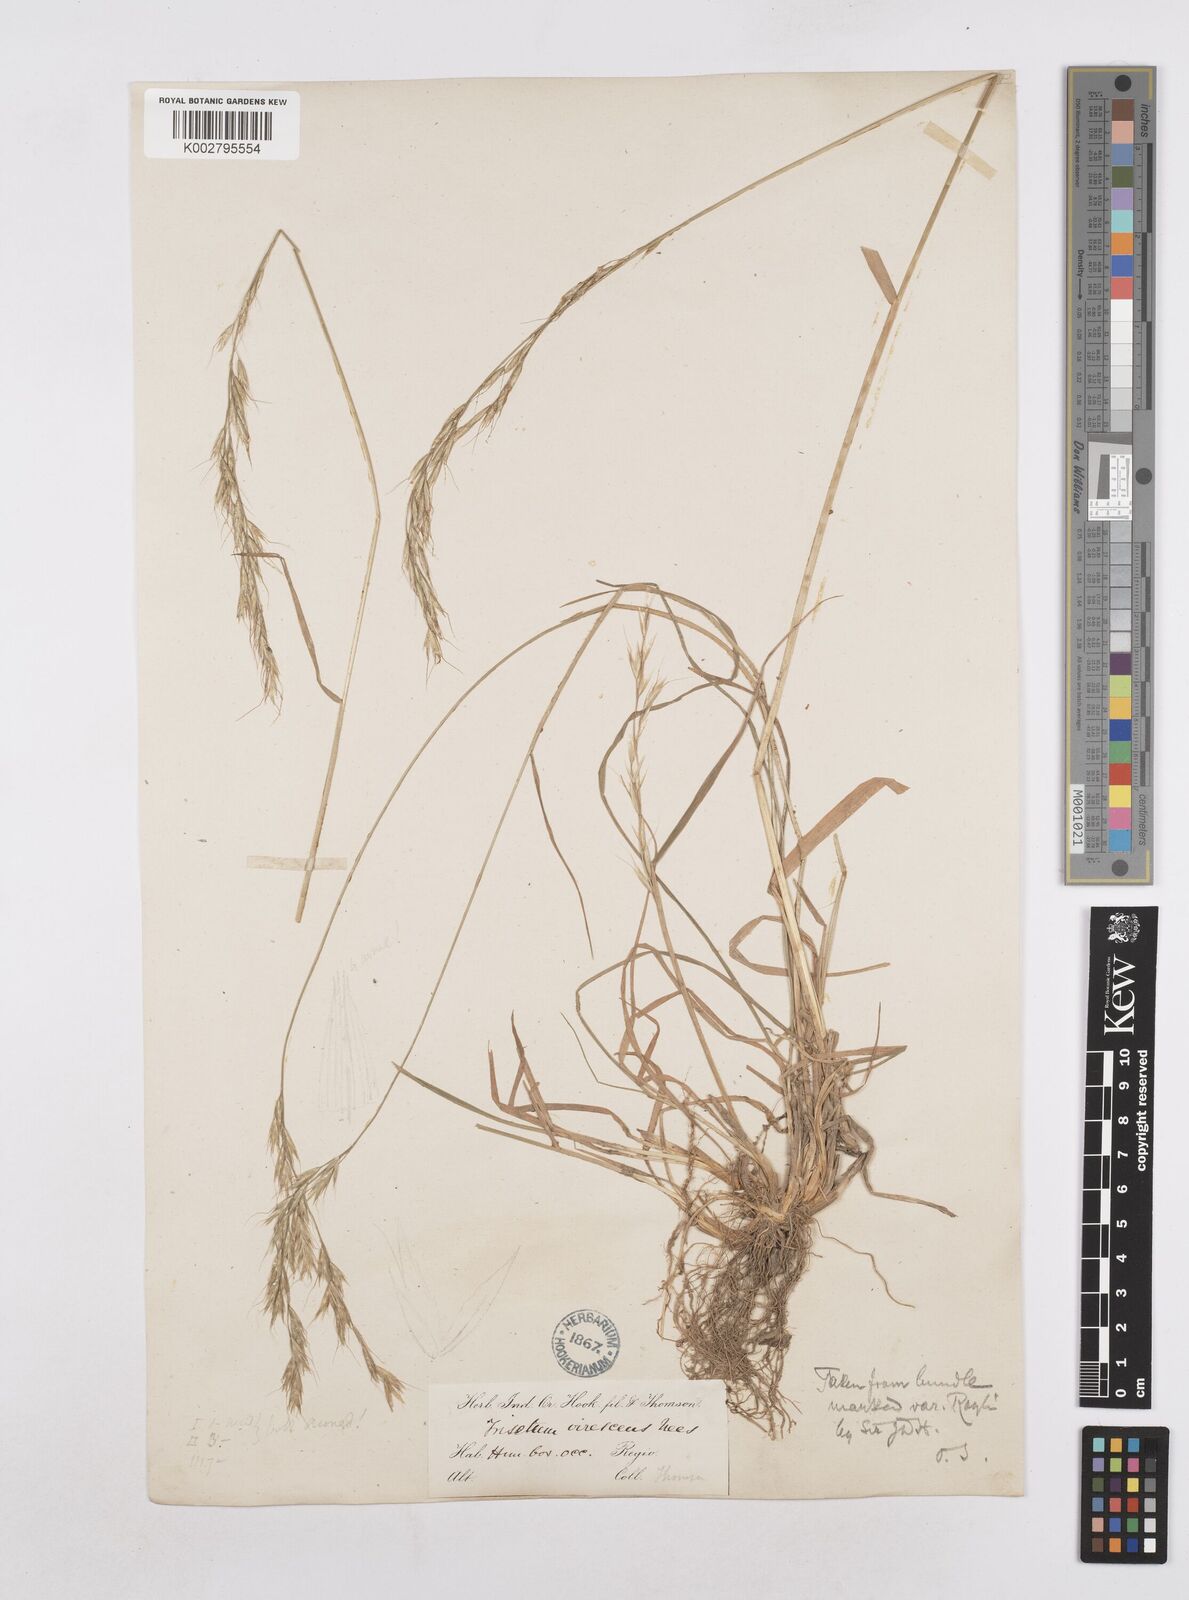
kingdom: Plantae
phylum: Tracheophyta
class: Liliopsida
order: Poales
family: Poaceae
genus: Trisetopsis
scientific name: Trisetopsis junghuhnii
